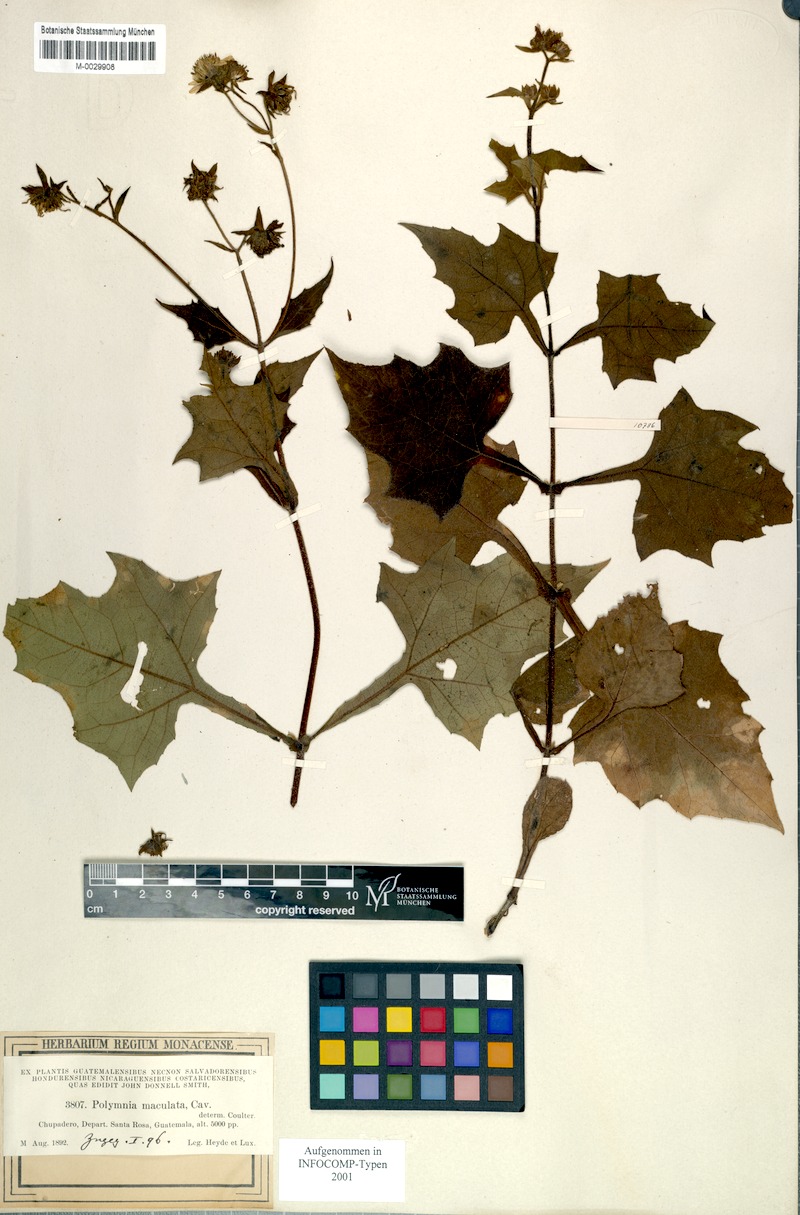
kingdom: Plantae
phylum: Tracheophyta
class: Magnoliopsida
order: Asterales
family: Asteraceae
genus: Smallanthus
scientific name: Smallanthus maculatus
